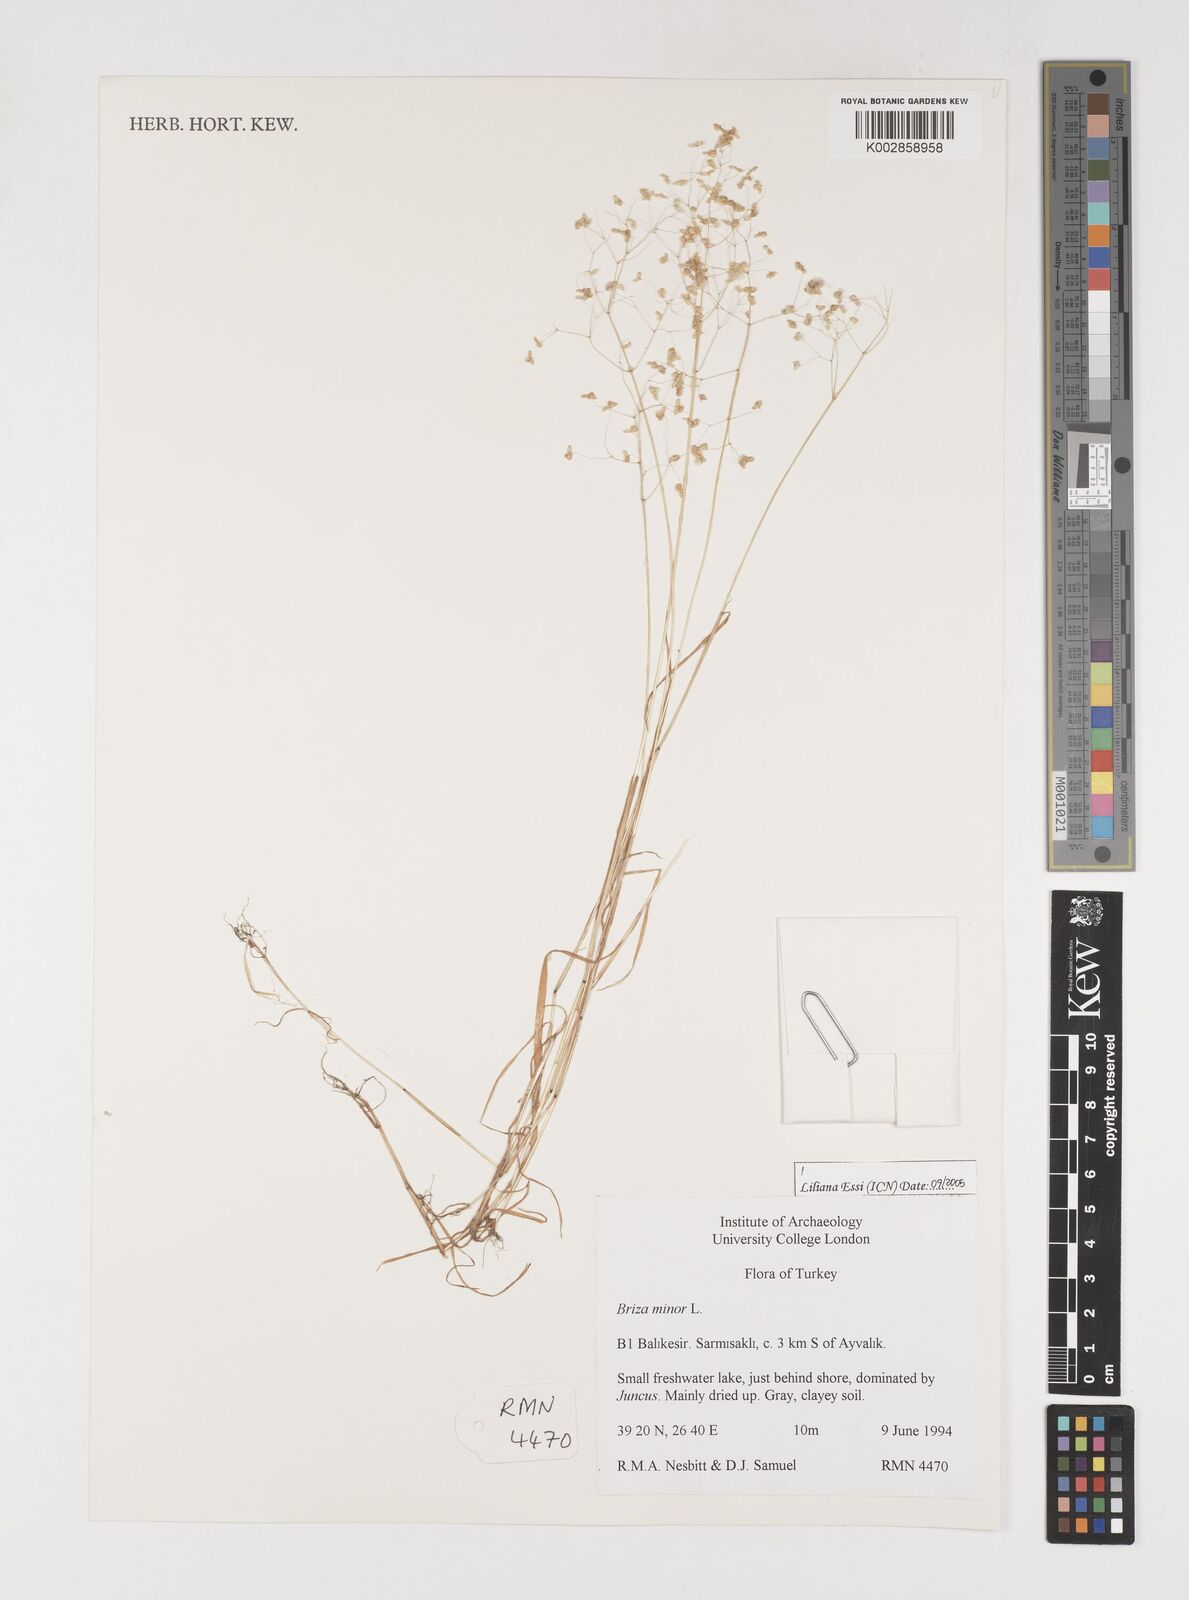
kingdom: Plantae
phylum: Tracheophyta
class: Liliopsida
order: Poales
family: Poaceae
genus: Briza
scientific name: Briza minor
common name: Lesser quaking-grass
